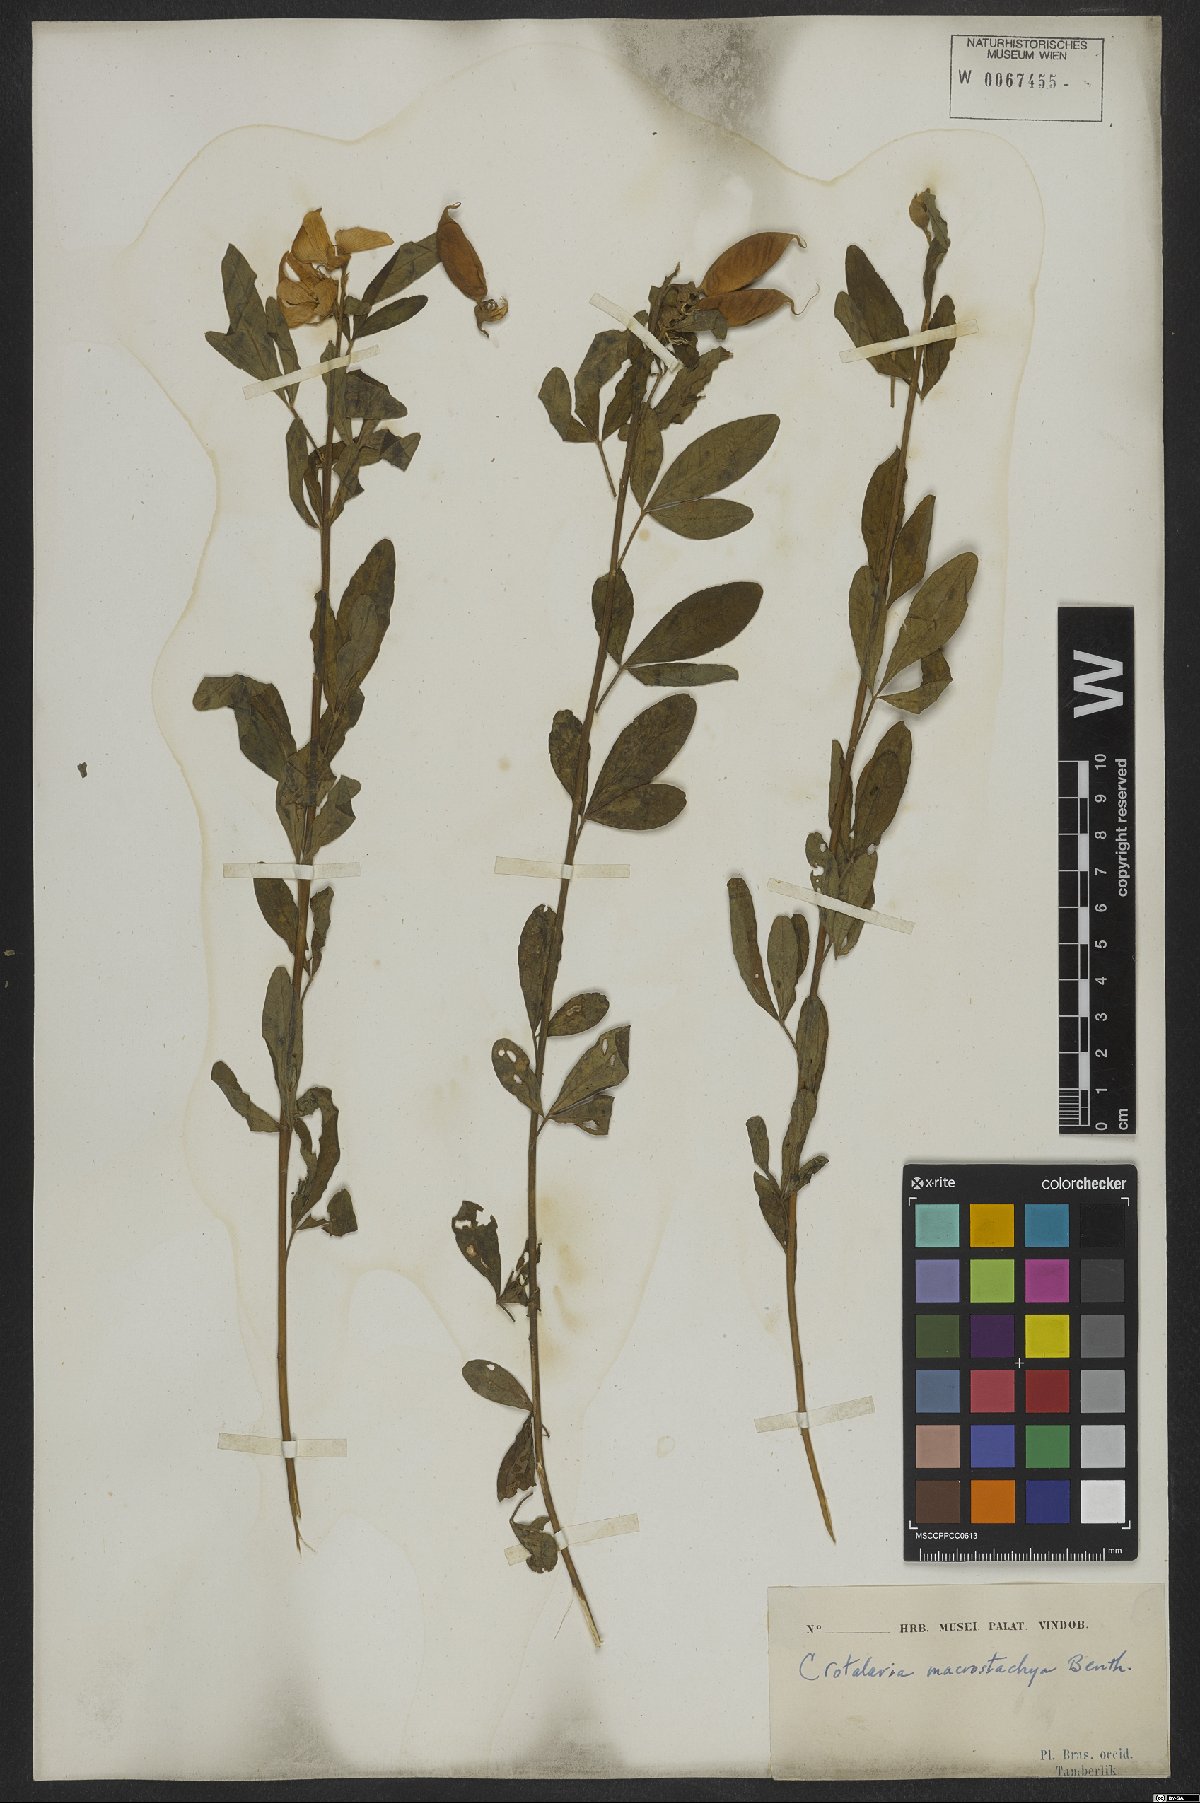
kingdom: Plantae
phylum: Tracheophyta
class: Magnoliopsida
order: Fabales
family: Fabaceae
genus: Crotalaria
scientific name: Crotalaria globifera
